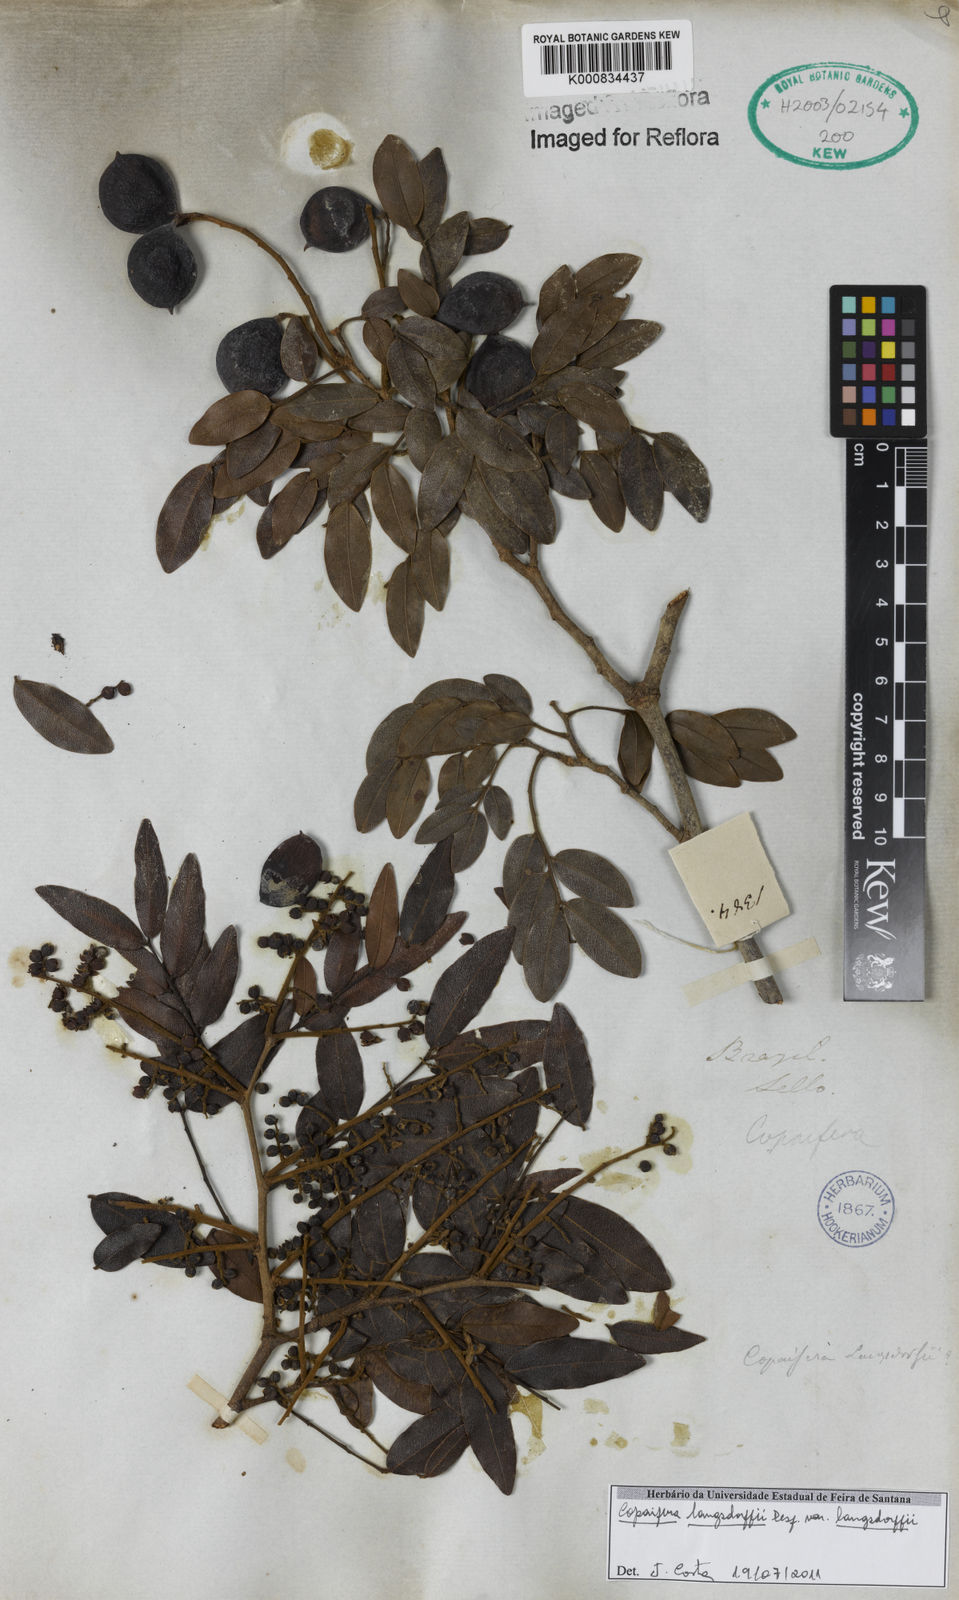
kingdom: Plantae
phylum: Tracheophyta
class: Magnoliopsida
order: Fabales
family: Fabaceae
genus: Copaifera
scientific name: Copaifera langsdorffii
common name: Brazilian diesel tree
